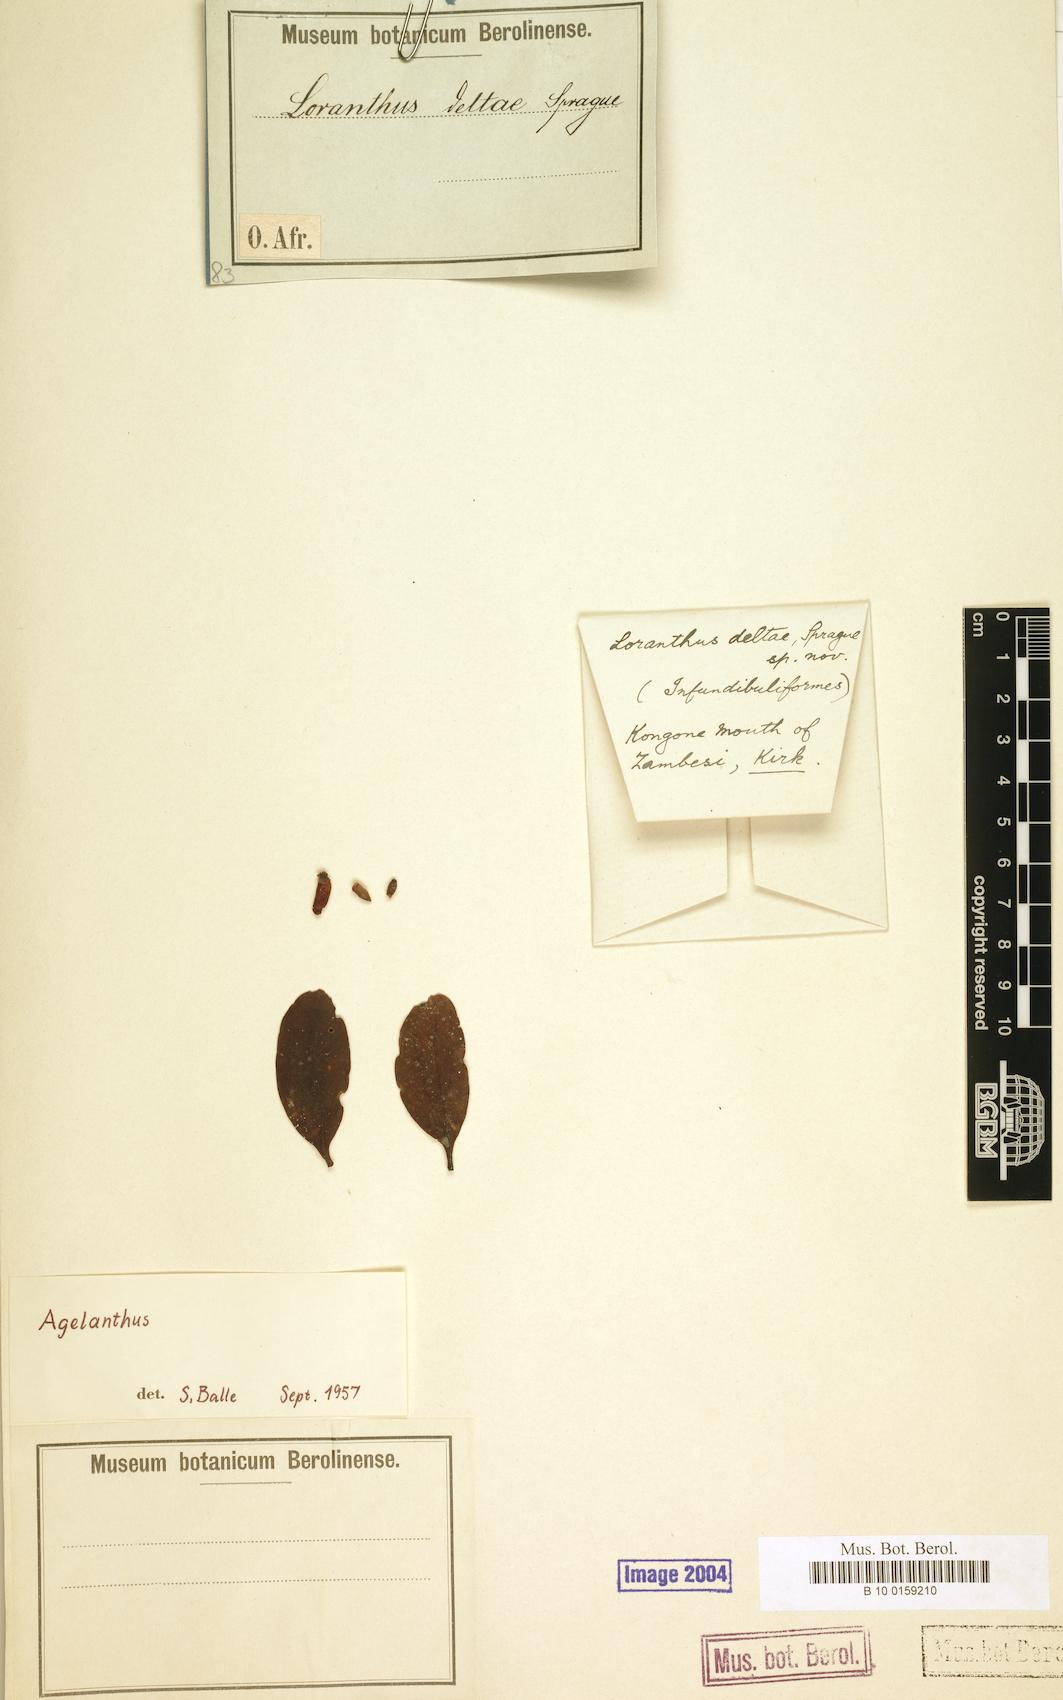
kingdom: Plantae
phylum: Tracheophyta
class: Magnoliopsida
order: Santalales
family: Loranthaceae
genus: Agelanthus
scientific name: Agelanthus deltae
